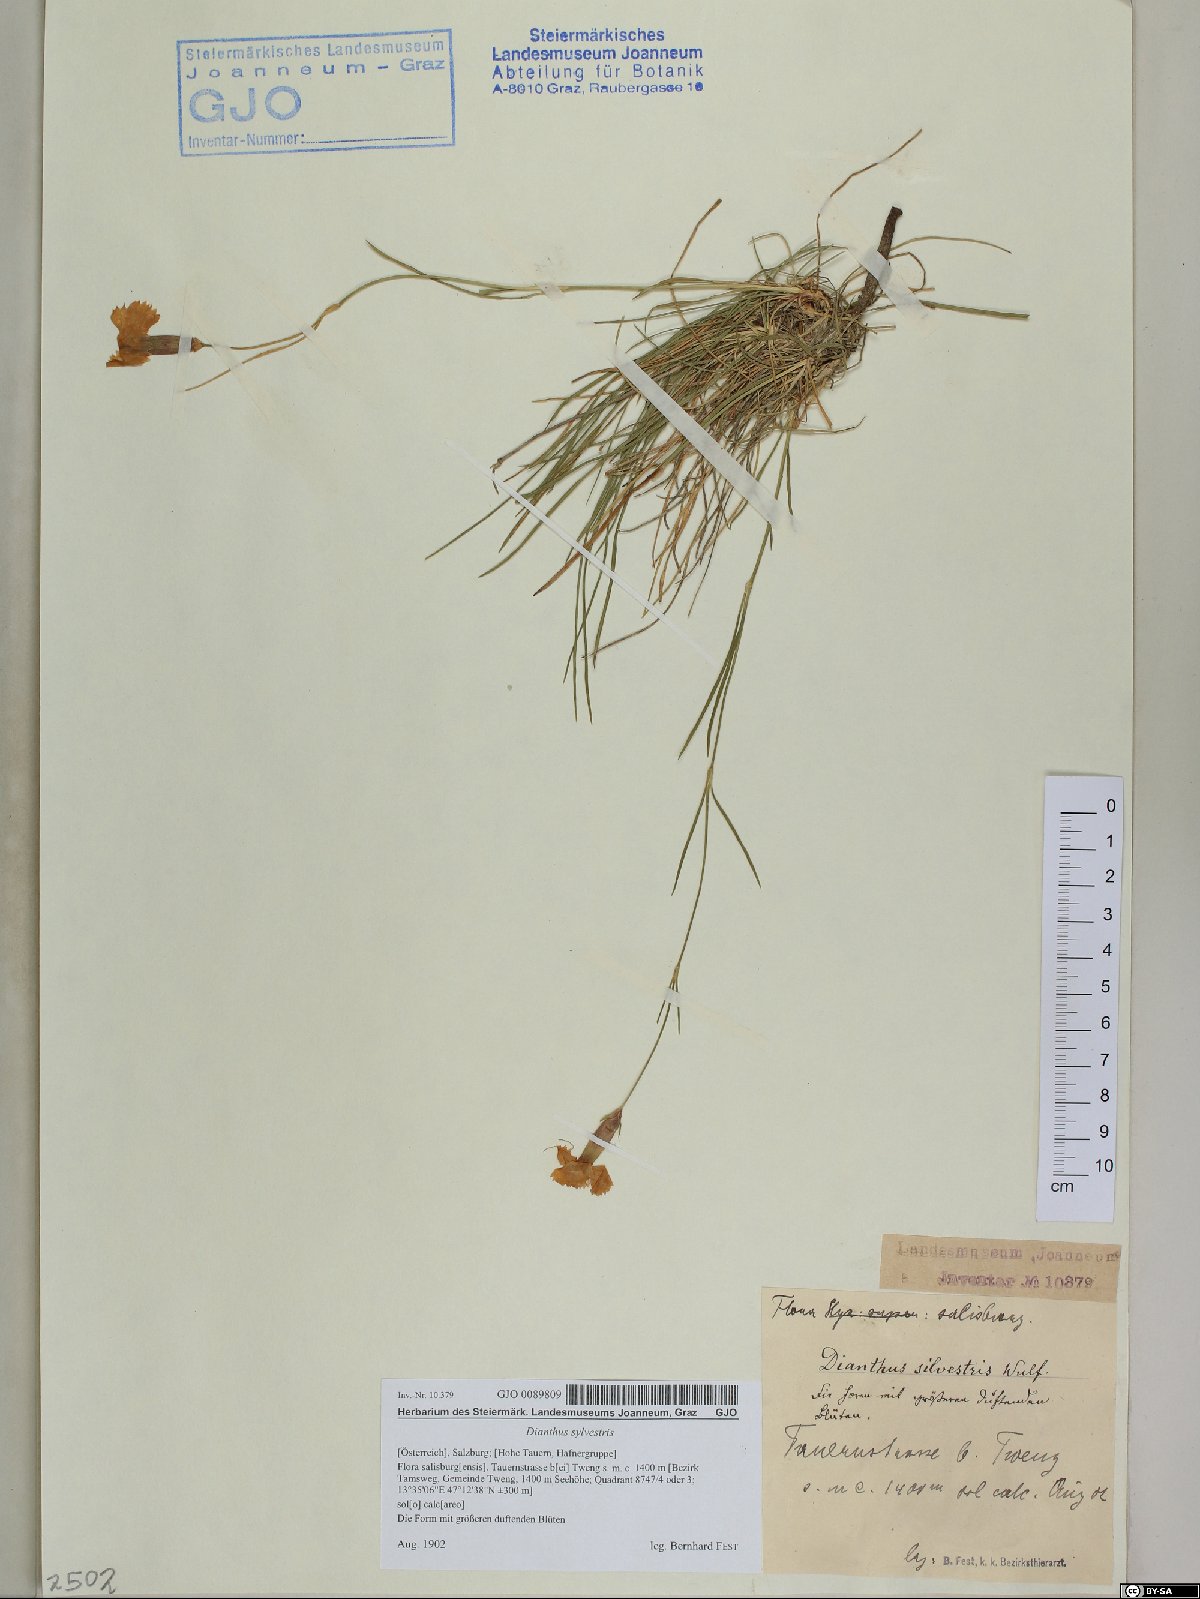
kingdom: Plantae
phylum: Tracheophyta
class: Magnoliopsida
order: Caryophyllales
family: Caryophyllaceae
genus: Dianthus
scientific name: Dianthus sylvestris
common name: Wood pink
